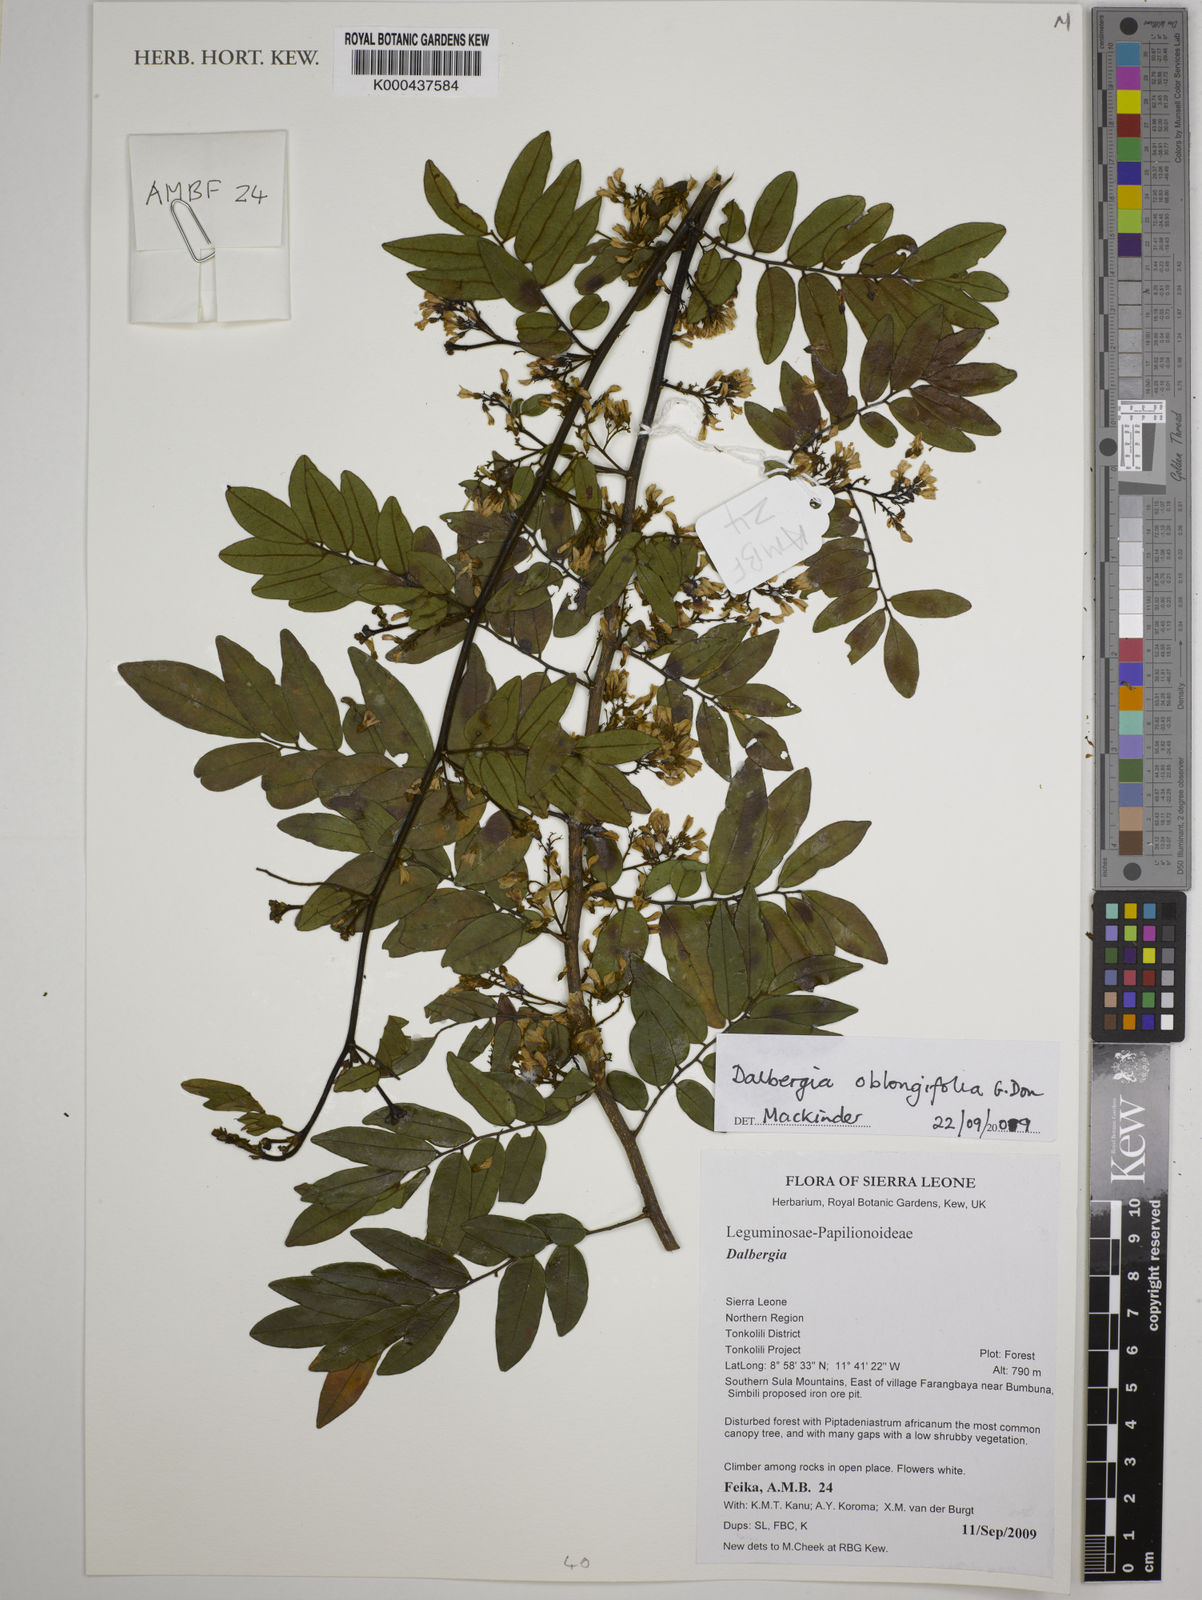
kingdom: Plantae
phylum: Tracheophyta
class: Magnoliopsida
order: Malpighiales
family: Euphorbiaceae
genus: Acalypha
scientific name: Acalypha guineensis
